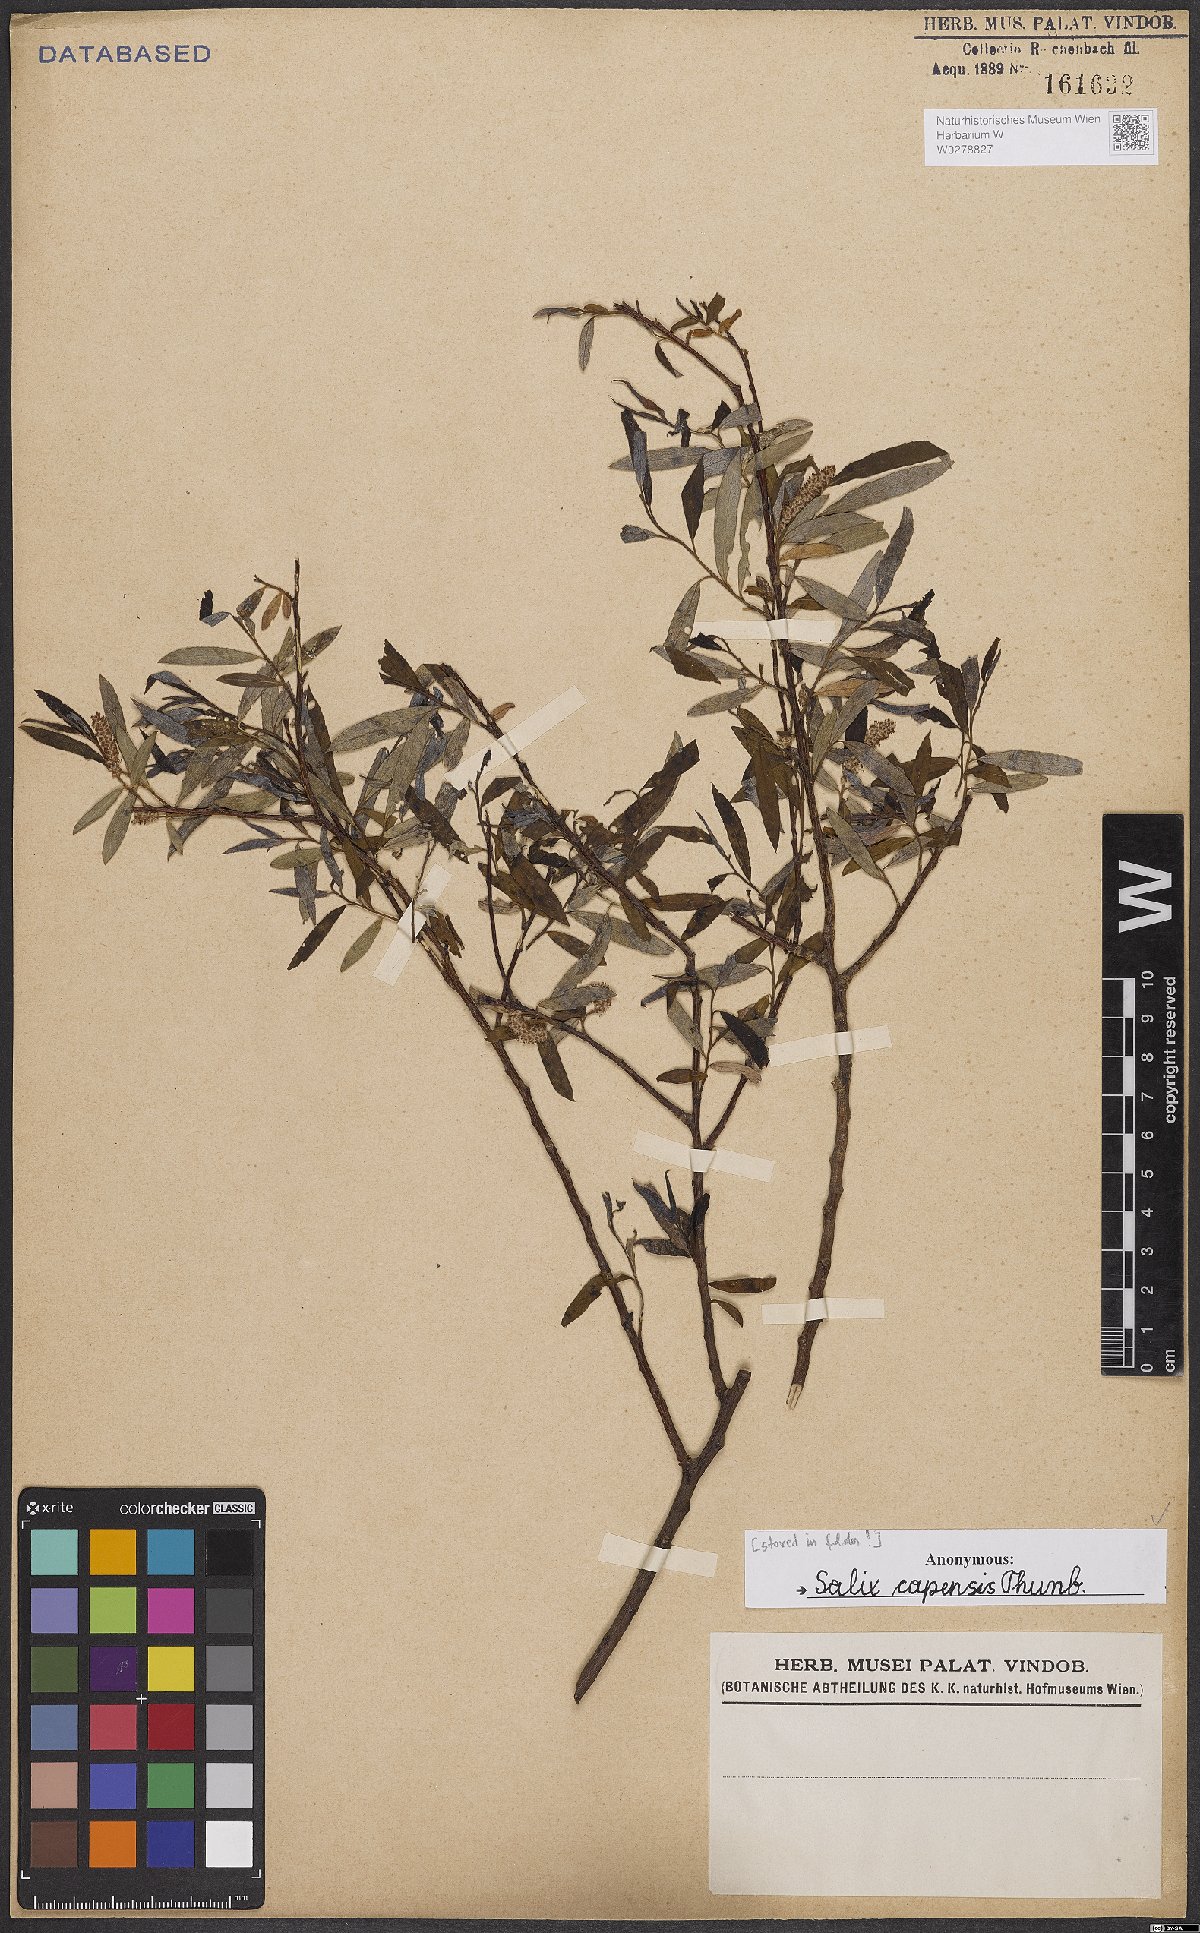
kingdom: Plantae
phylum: Tracheophyta
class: Magnoliopsida
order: Malpighiales
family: Salicaceae
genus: Salix
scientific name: Salix mucronata
